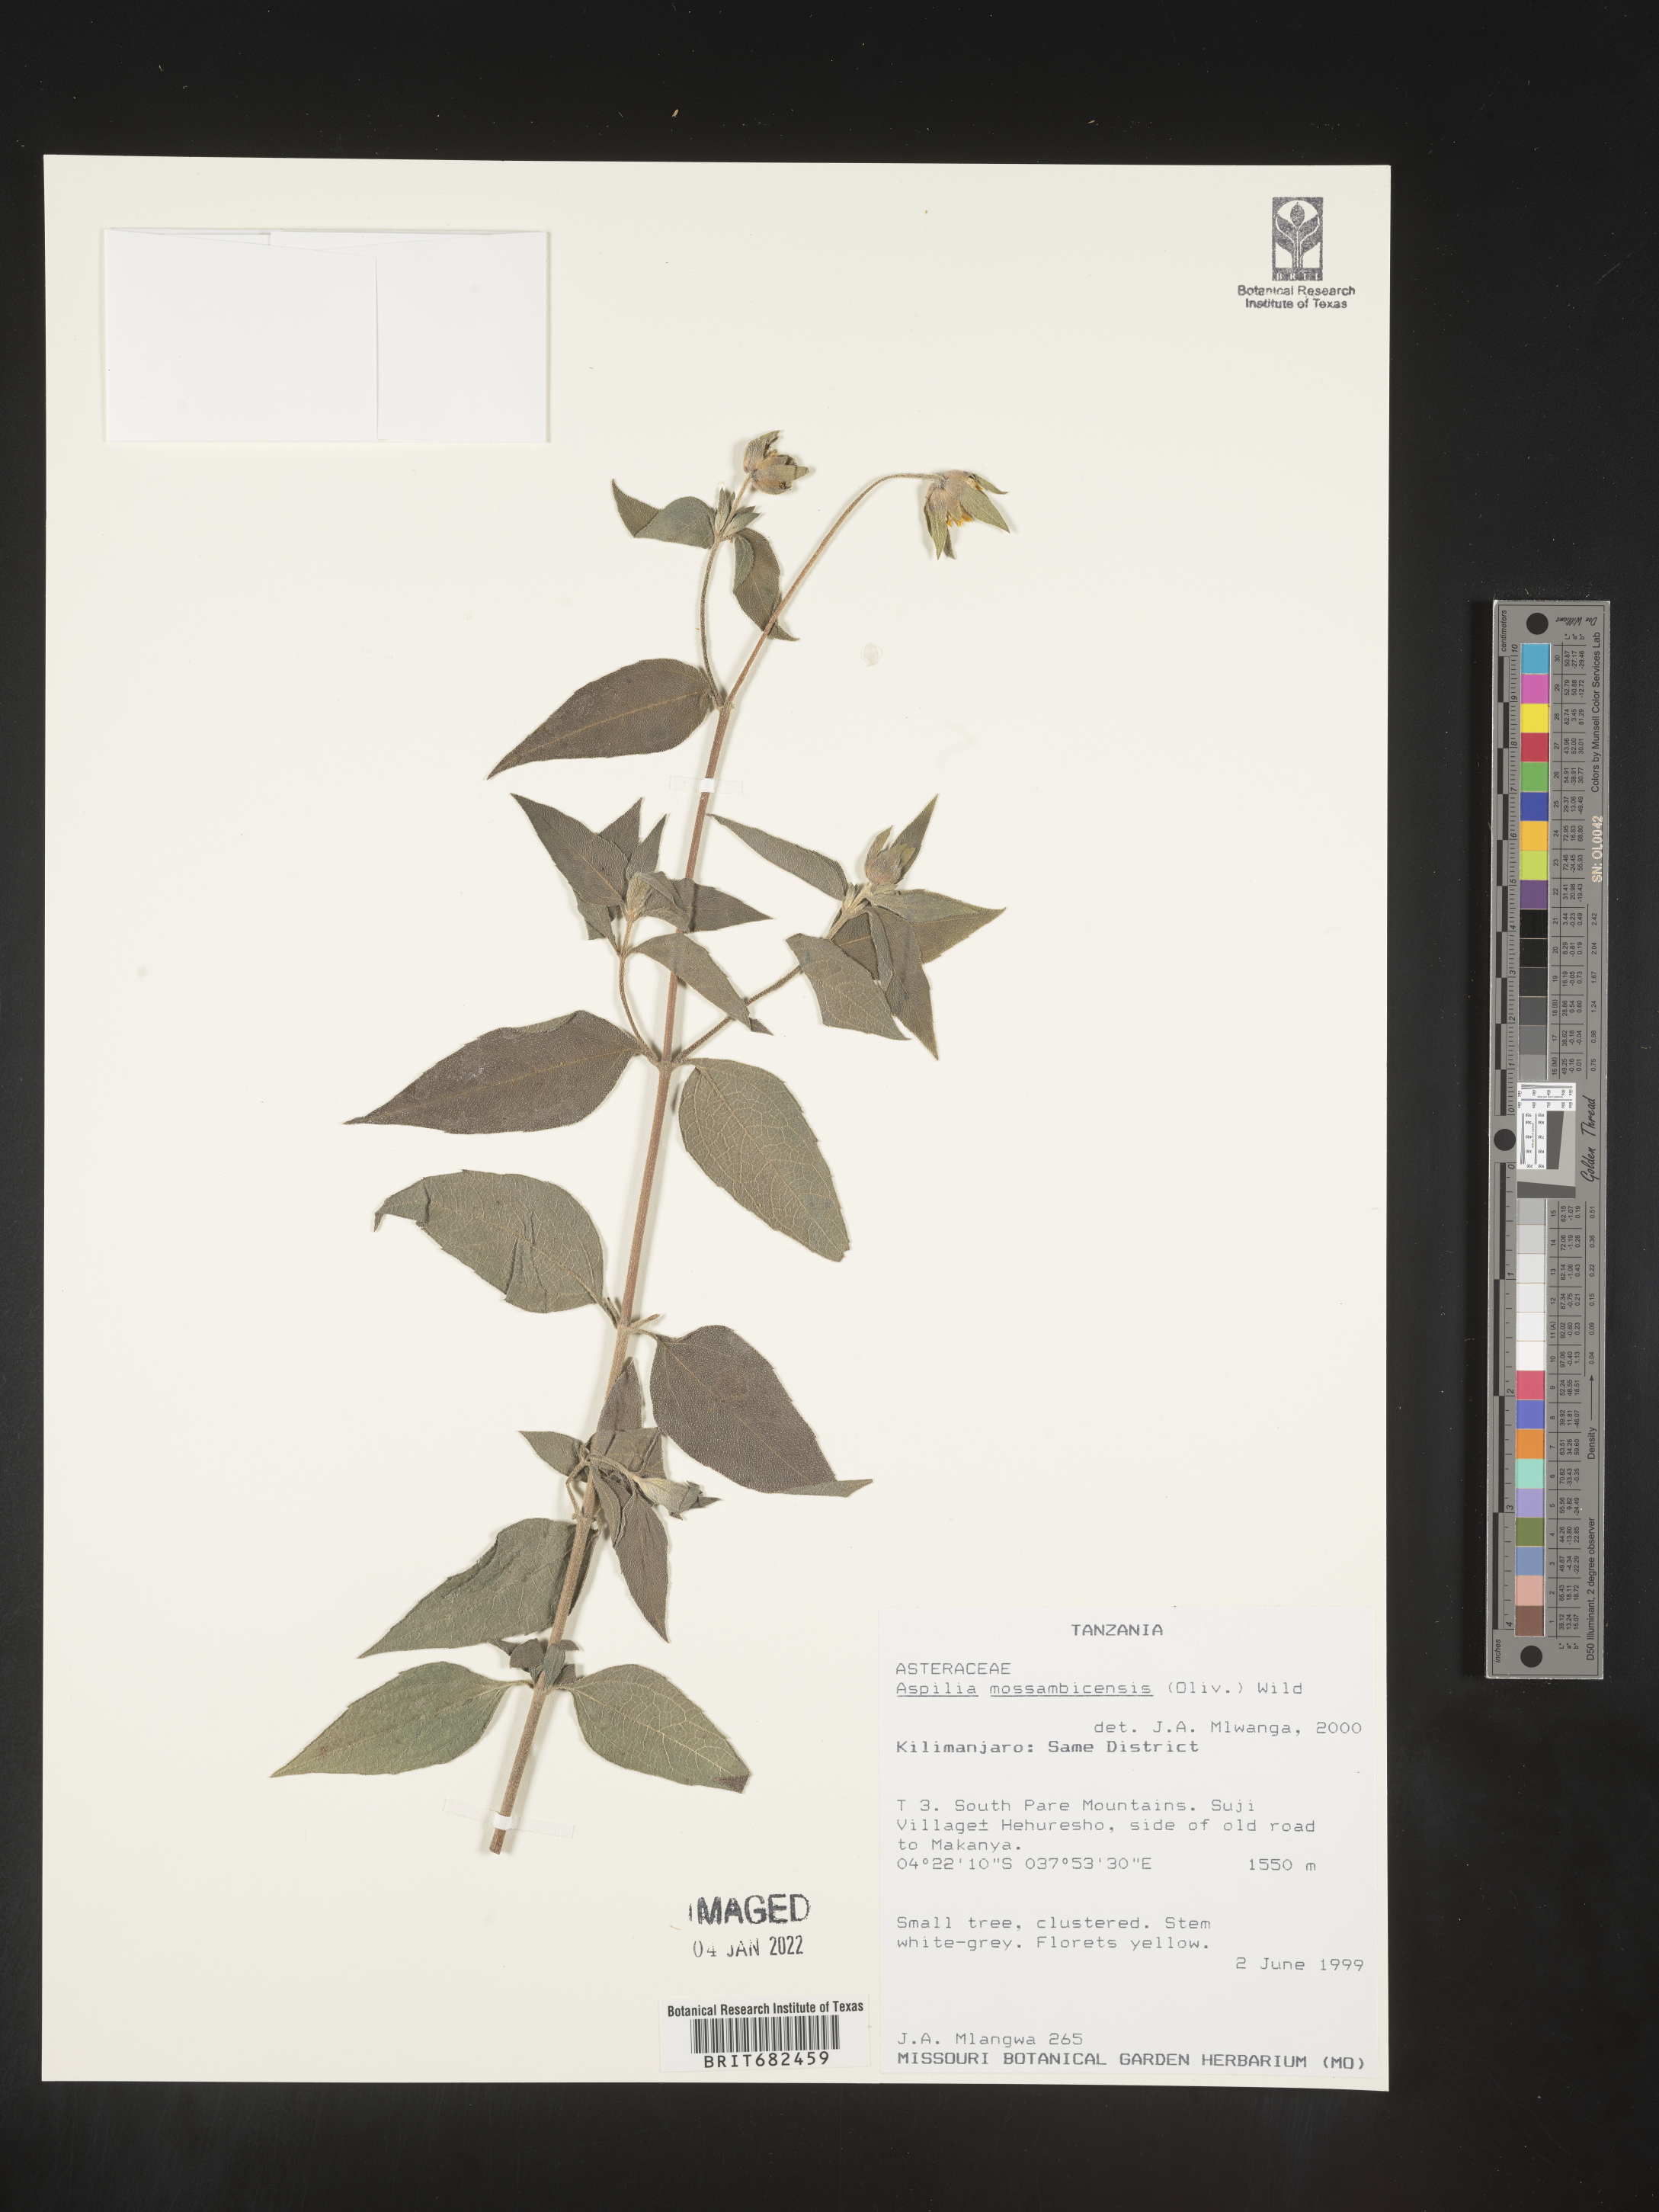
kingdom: Plantae
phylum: Tracheophyta
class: Magnoliopsida
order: Asterales
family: Asteraceae
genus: Aspilia
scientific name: Aspilia
